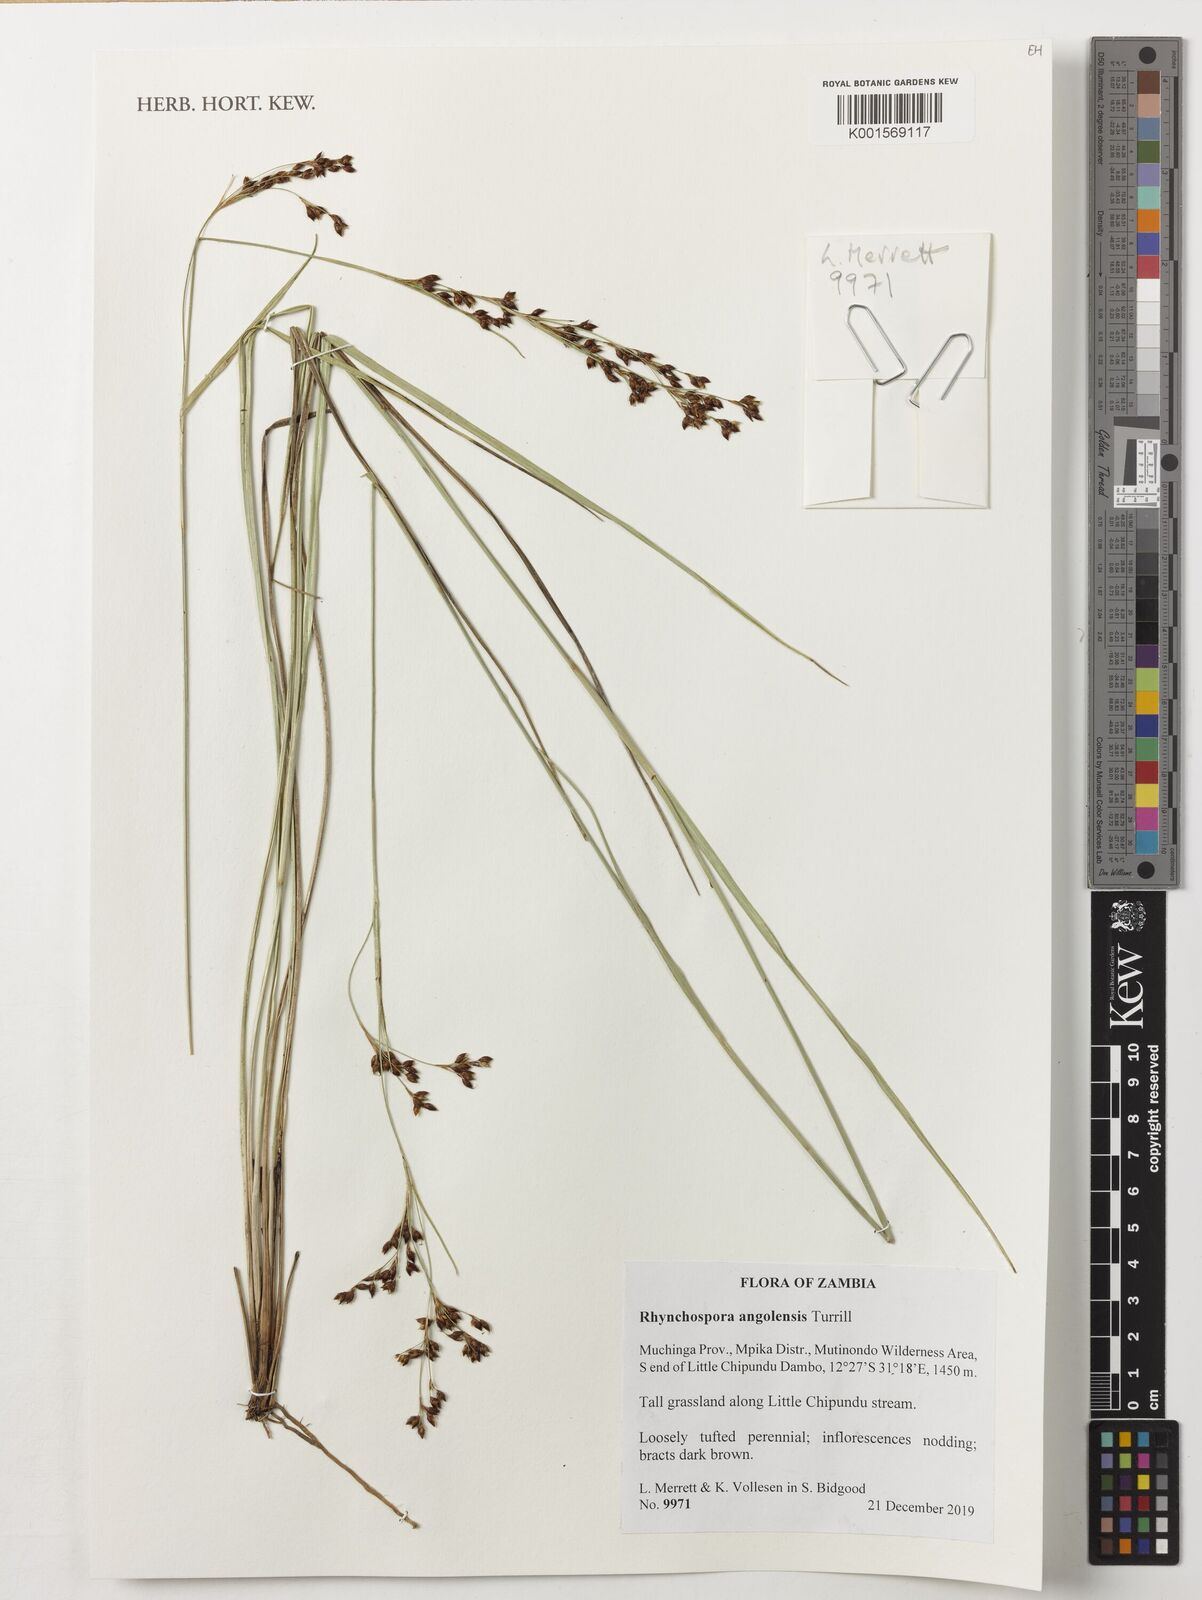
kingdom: Plantae
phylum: Tracheophyta
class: Liliopsida
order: Poales
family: Cyperaceae
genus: Rhynchospora
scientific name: Rhynchospora angolensis
